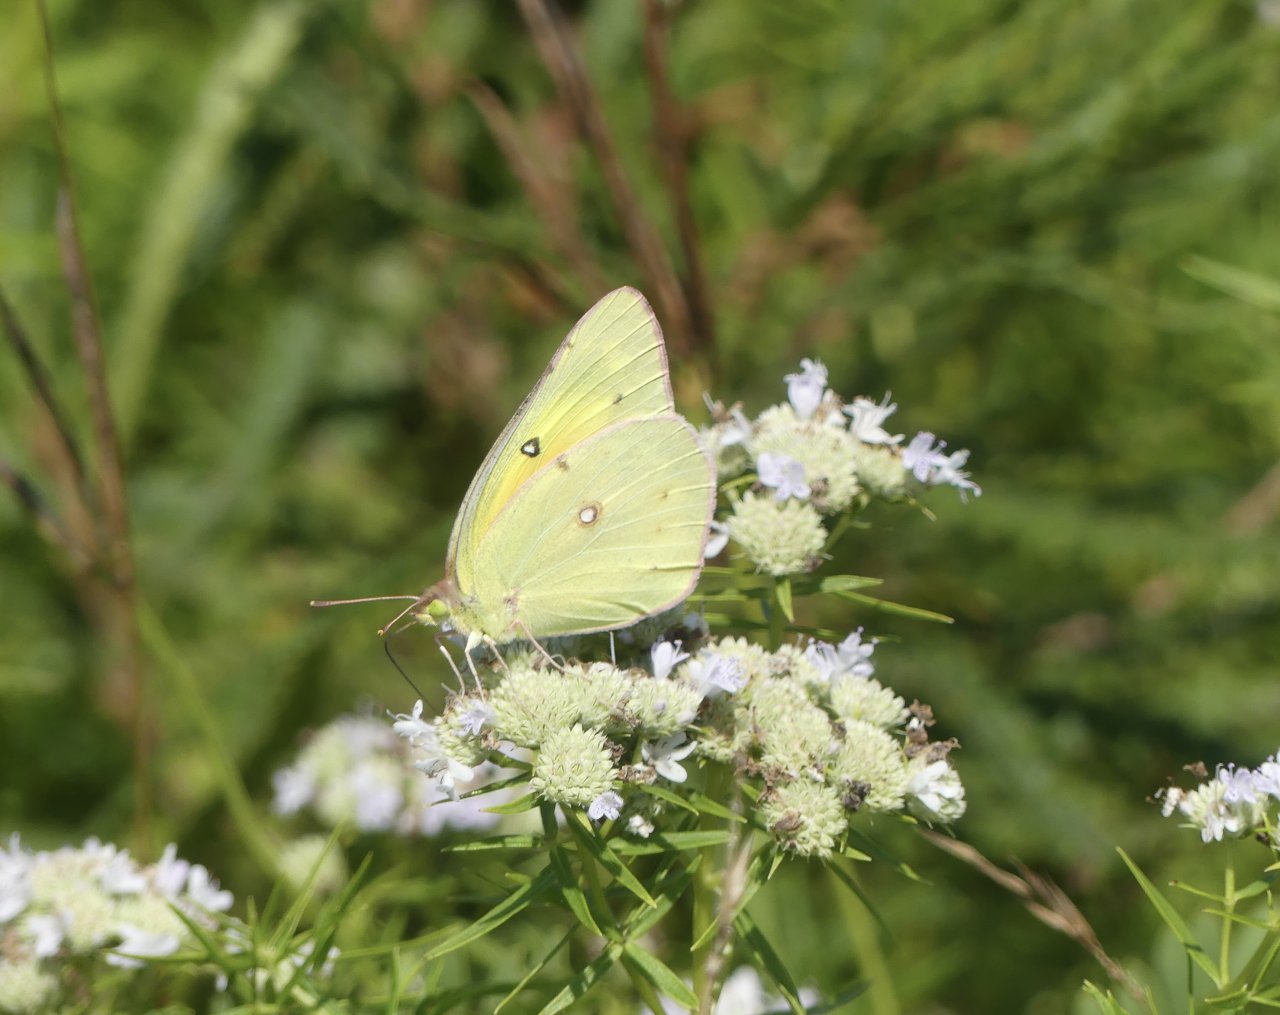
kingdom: Animalia
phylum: Arthropoda
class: Insecta
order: Lepidoptera
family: Pieridae
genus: Colias
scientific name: Colias eurytheme
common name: Orange Sulphur
